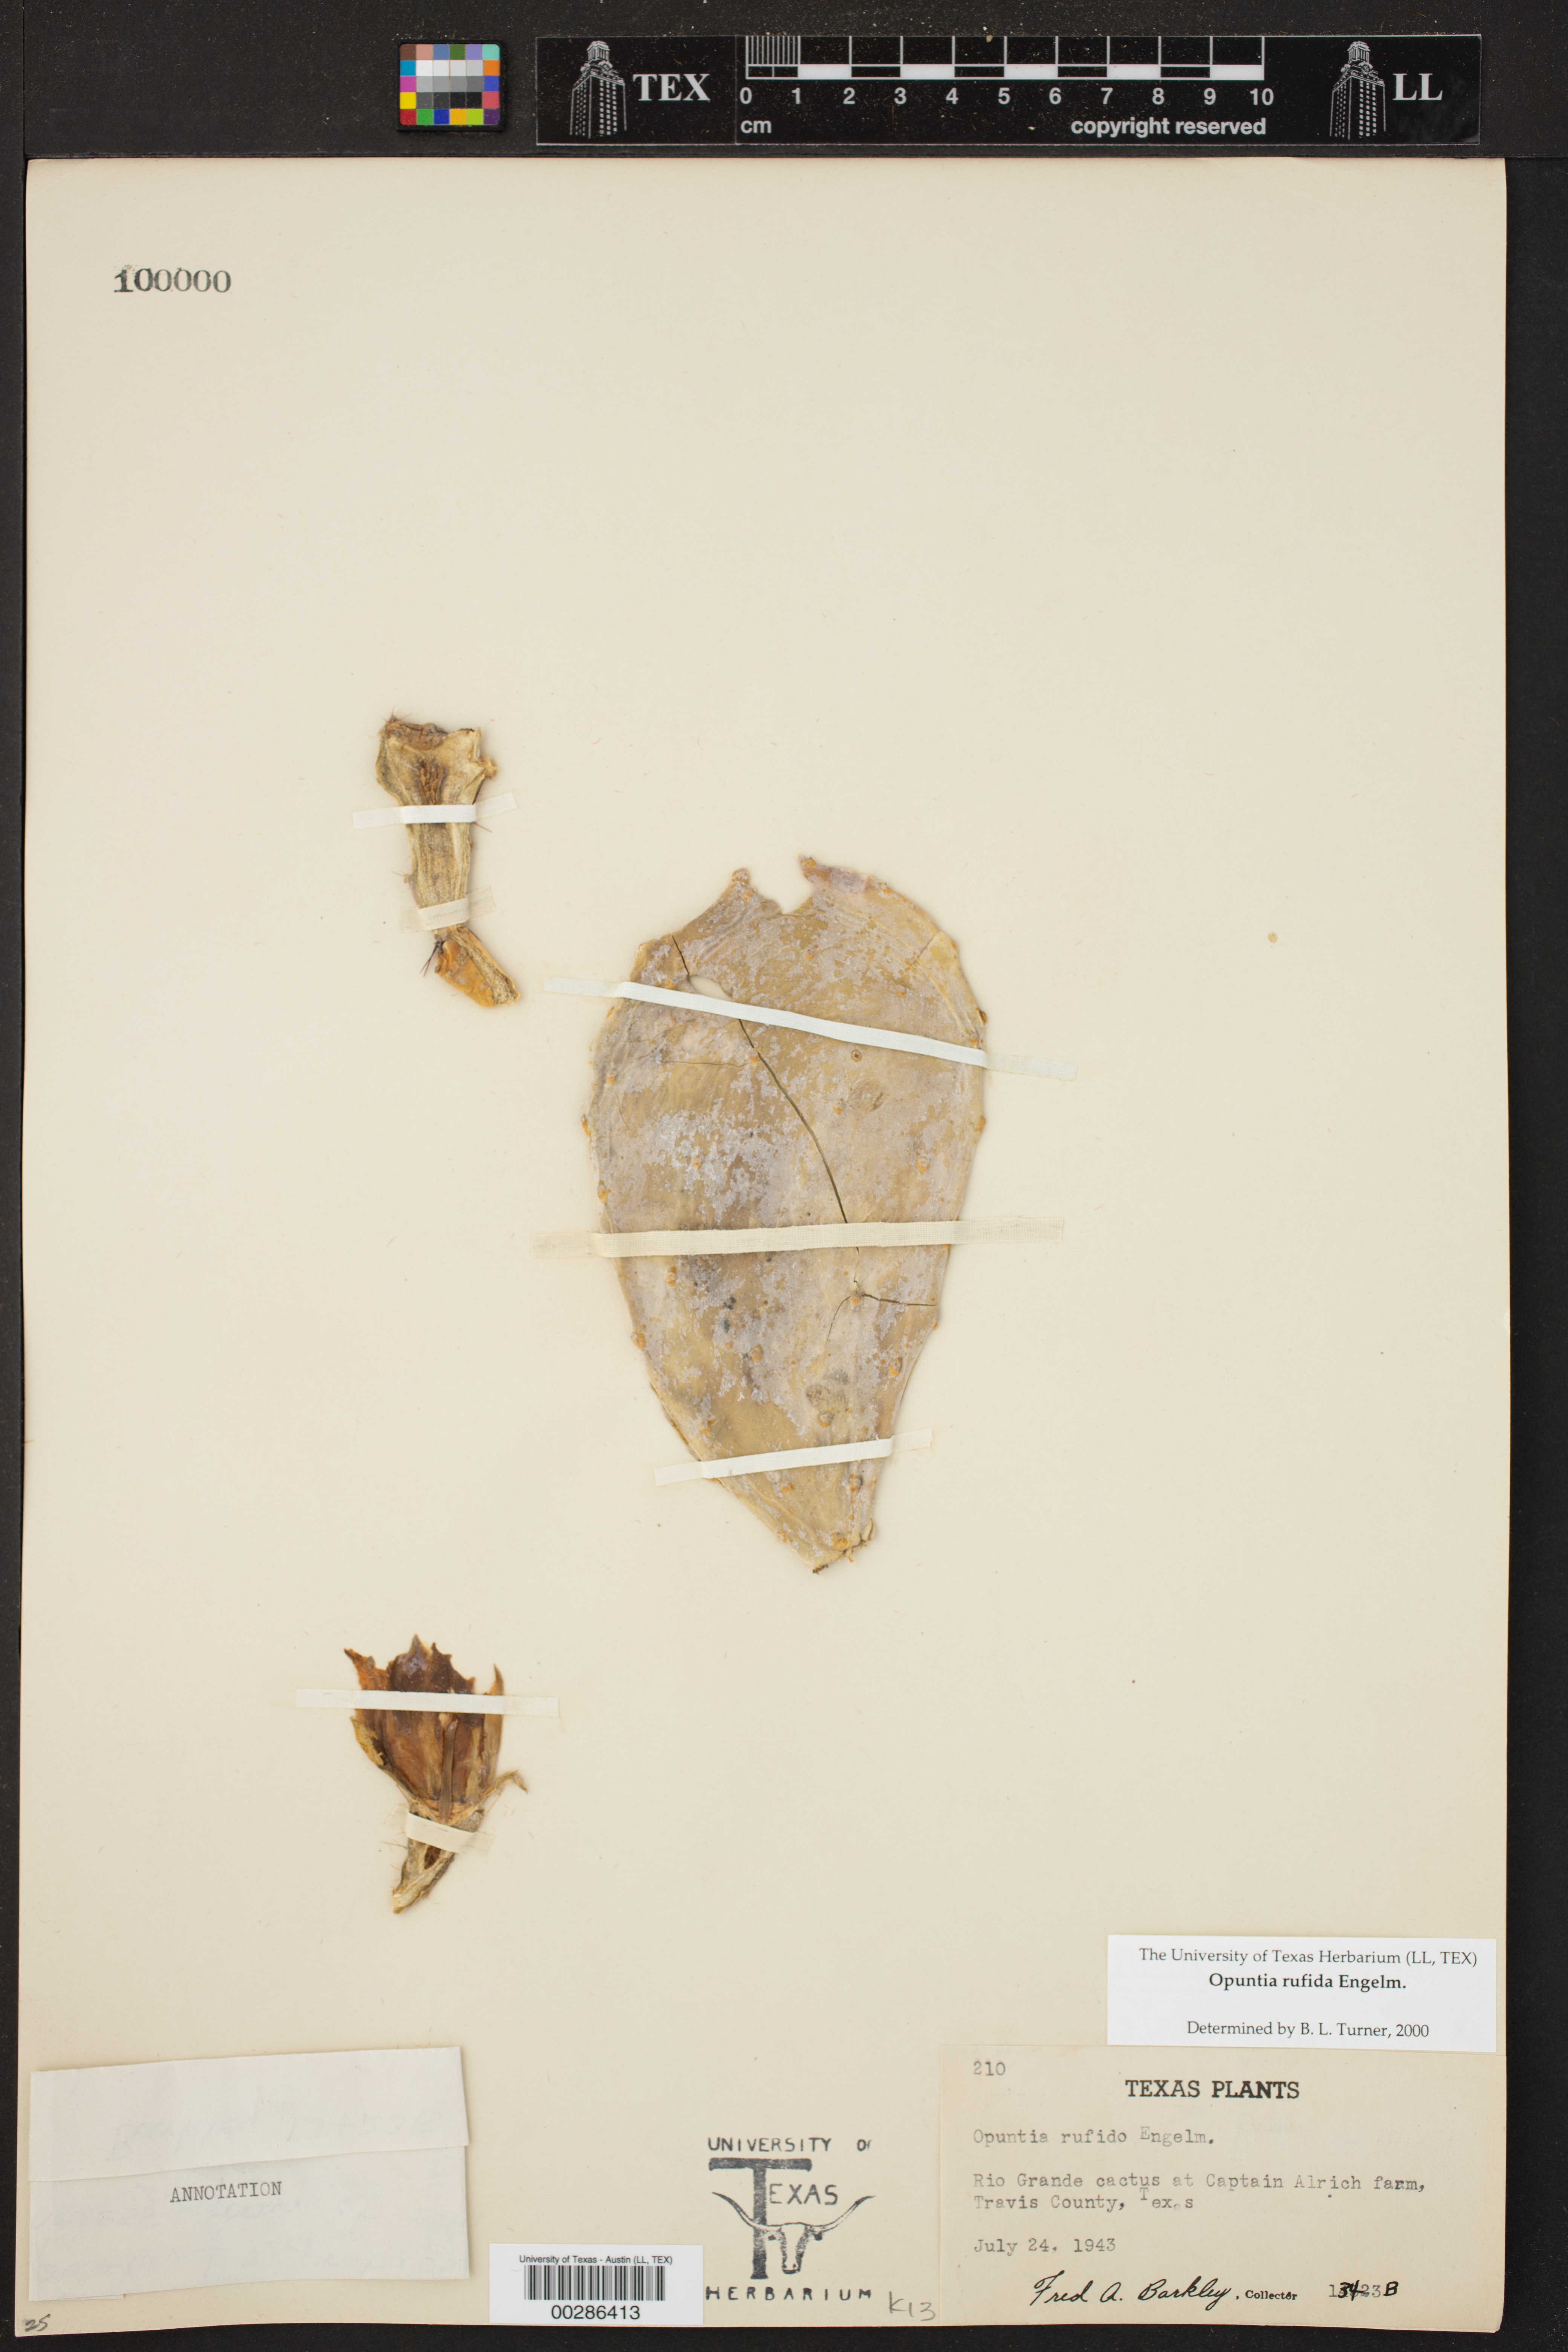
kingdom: Plantae
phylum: Tracheophyta
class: Magnoliopsida
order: Caryophyllales
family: Cactaceae
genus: Opuntia
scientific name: Opuntia rufida
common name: Blind pricklypear
